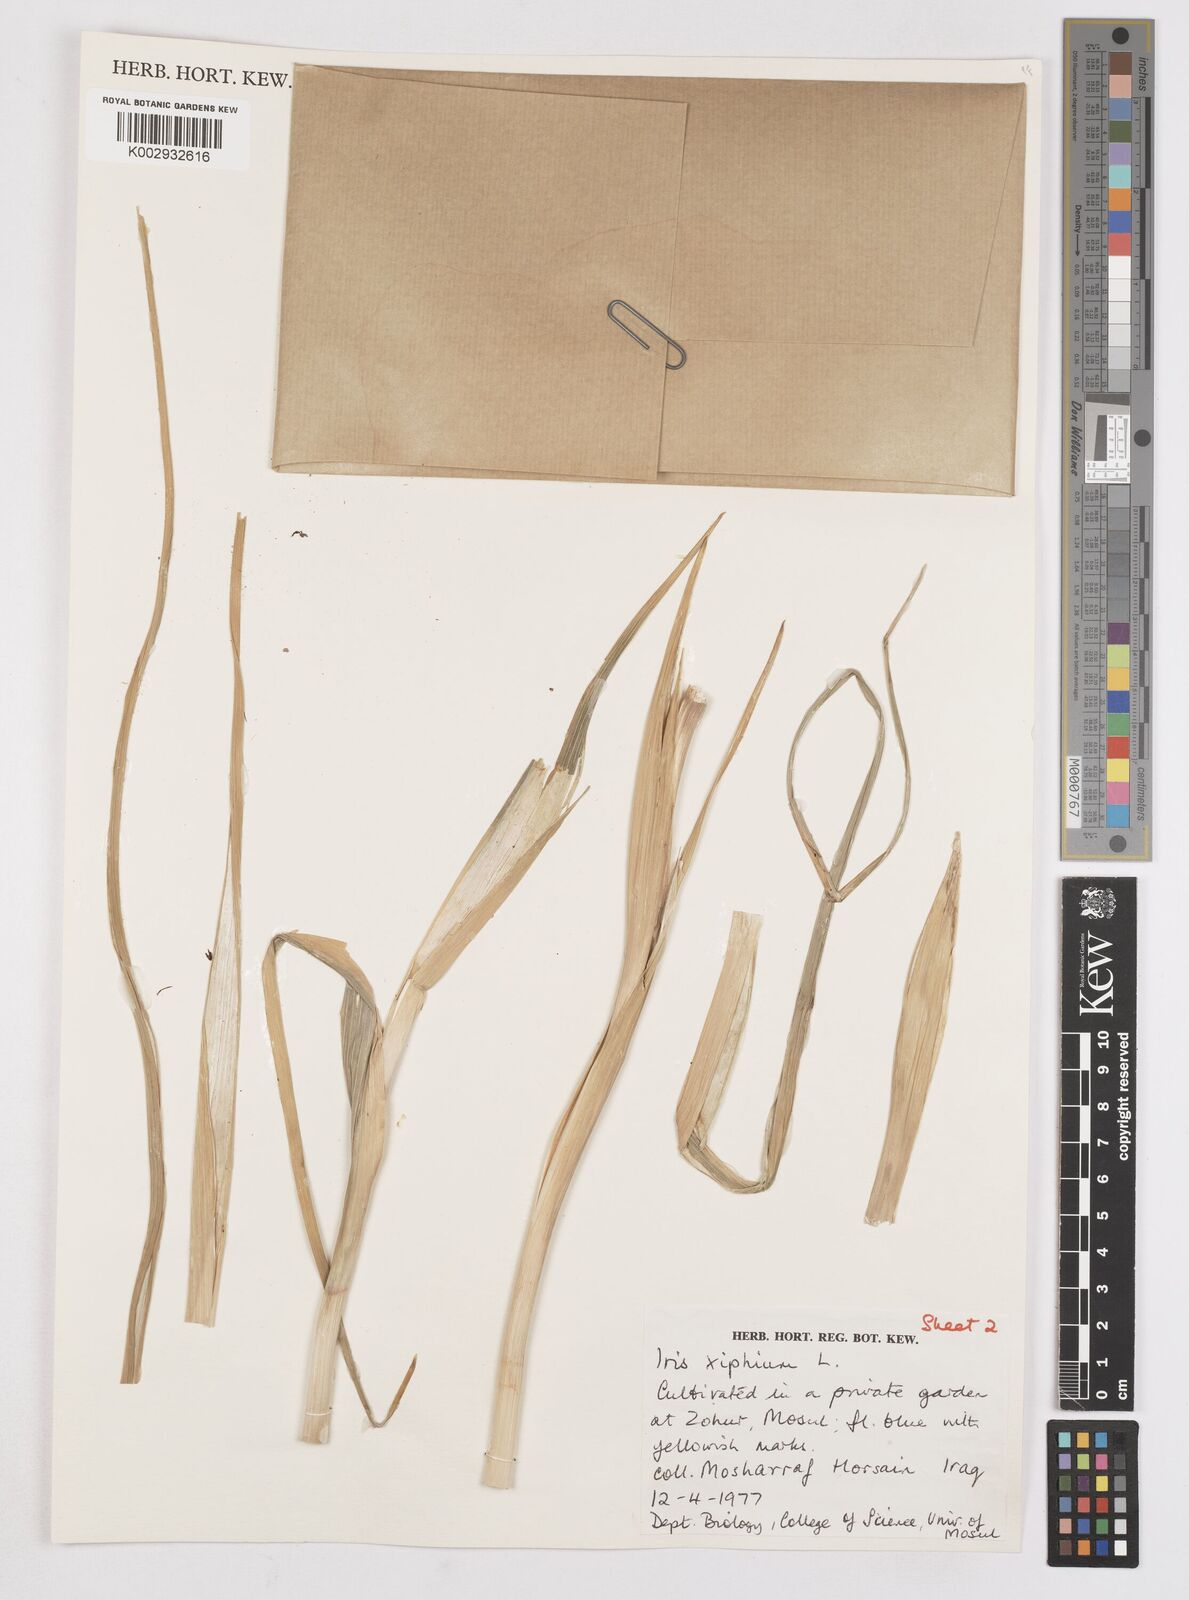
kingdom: Plantae
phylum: Tracheophyta
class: Liliopsida
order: Asparagales
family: Iridaceae
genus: Iris
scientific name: Iris xiphium
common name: Spanish iris
